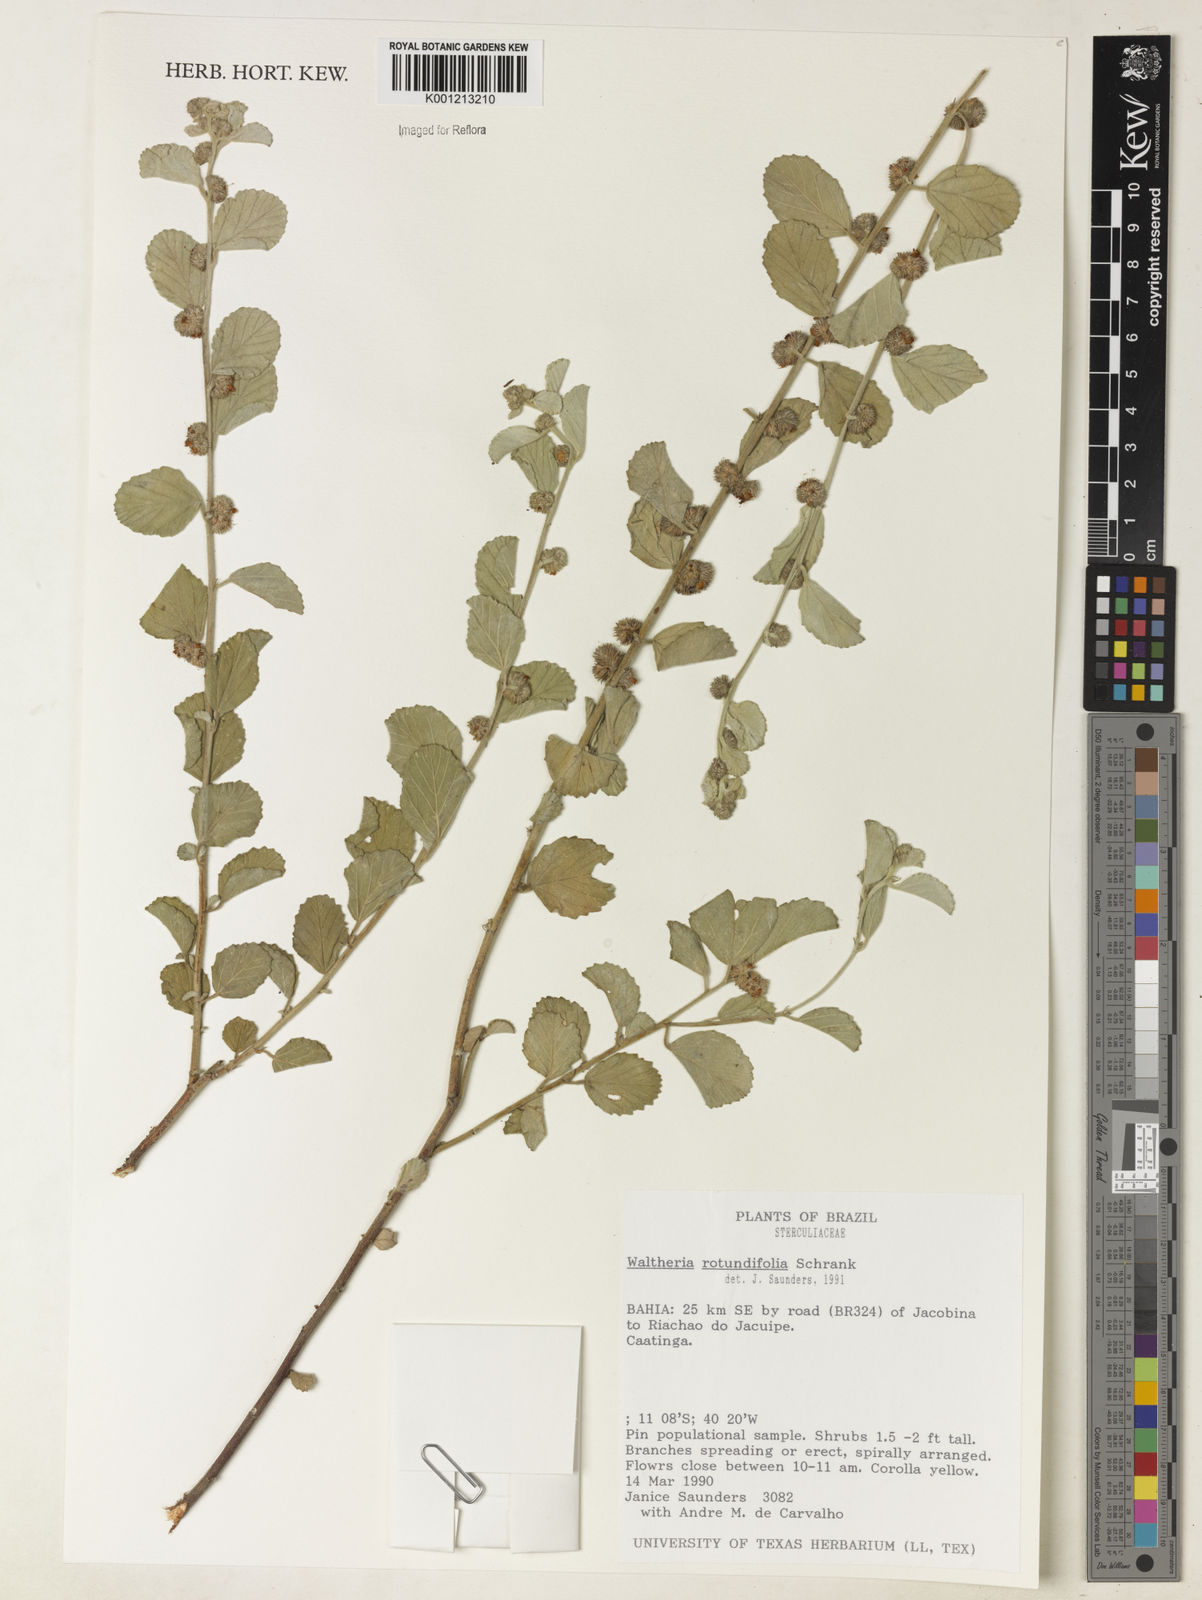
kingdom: Plantae
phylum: Tracheophyta
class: Magnoliopsida
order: Malvales
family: Malvaceae
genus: Waltheria
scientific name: Waltheria rotundifolia
